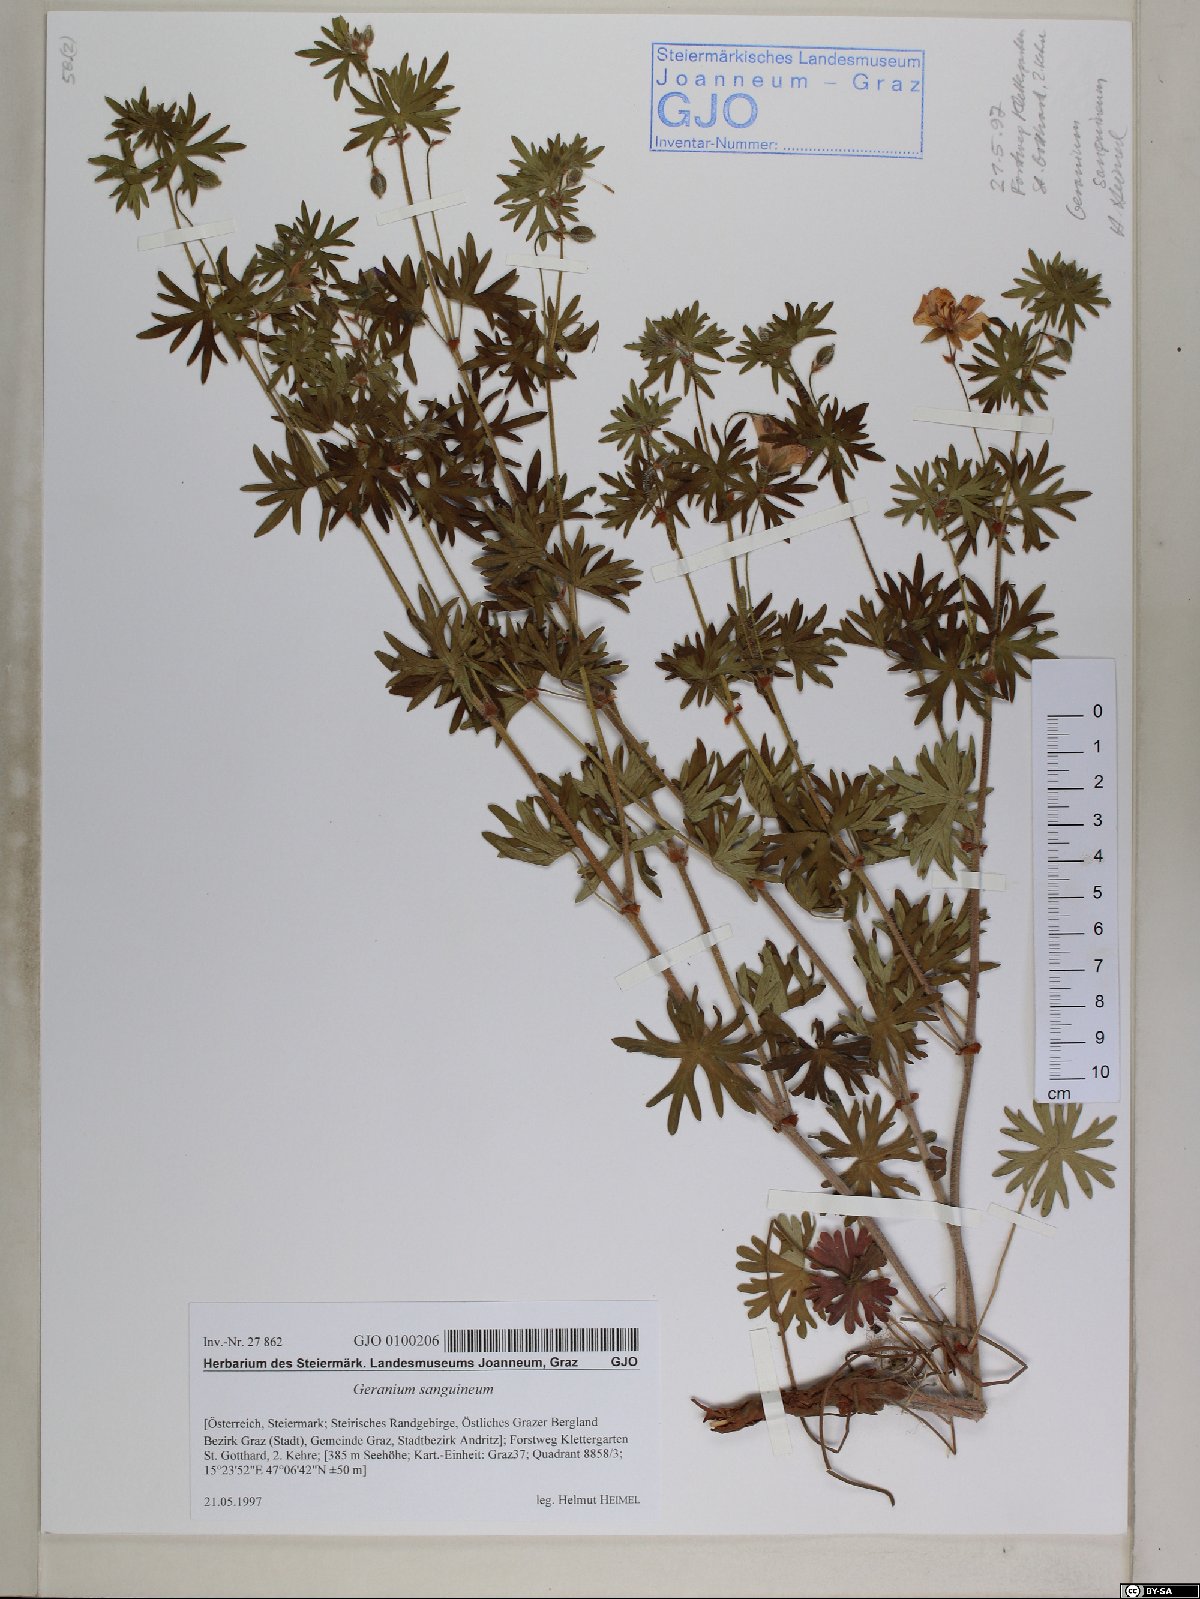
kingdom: Plantae
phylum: Tracheophyta
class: Magnoliopsida
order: Geraniales
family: Geraniaceae
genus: Geranium
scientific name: Geranium sanguineum
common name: Bloody crane's-bill
